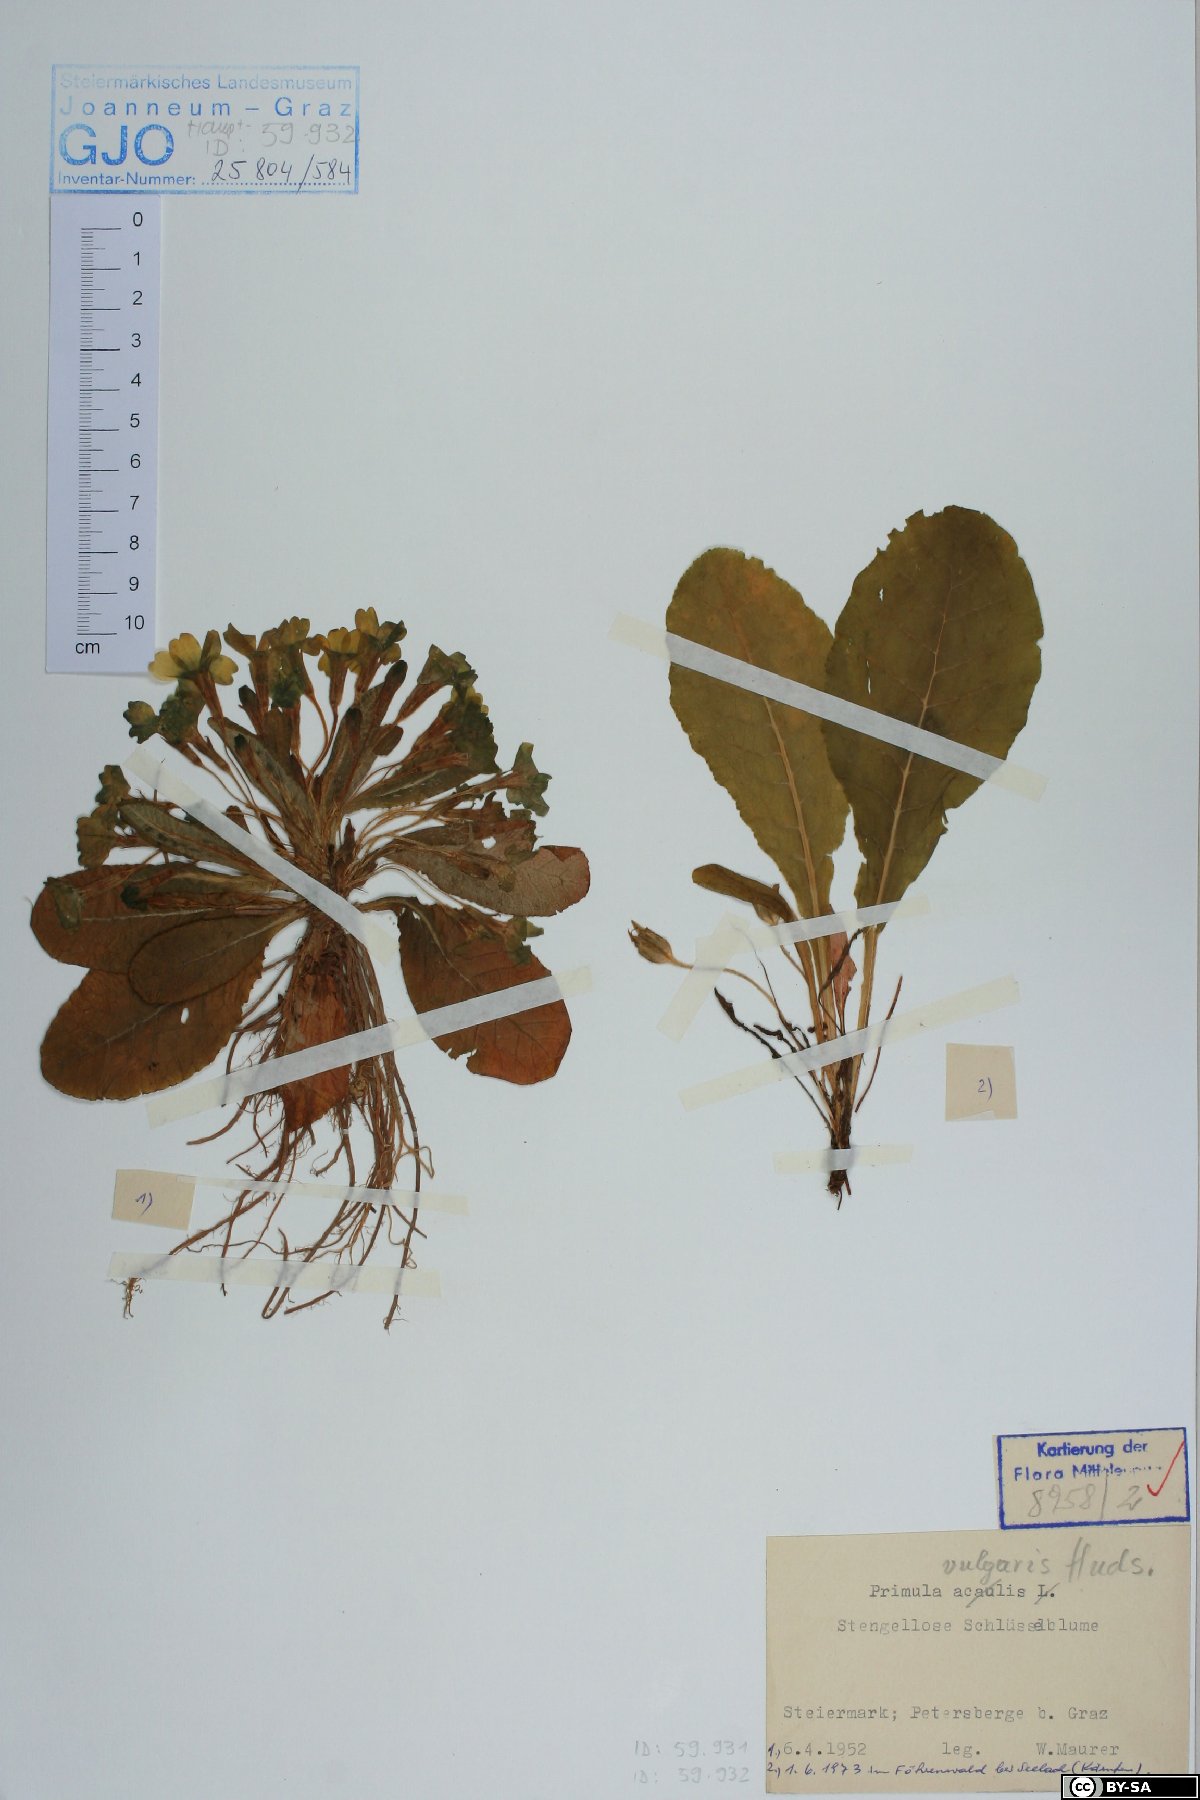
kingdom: Plantae
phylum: Tracheophyta
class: Magnoliopsida
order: Ericales
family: Primulaceae
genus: Primula
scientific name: Primula vulgaris
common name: Primrose
